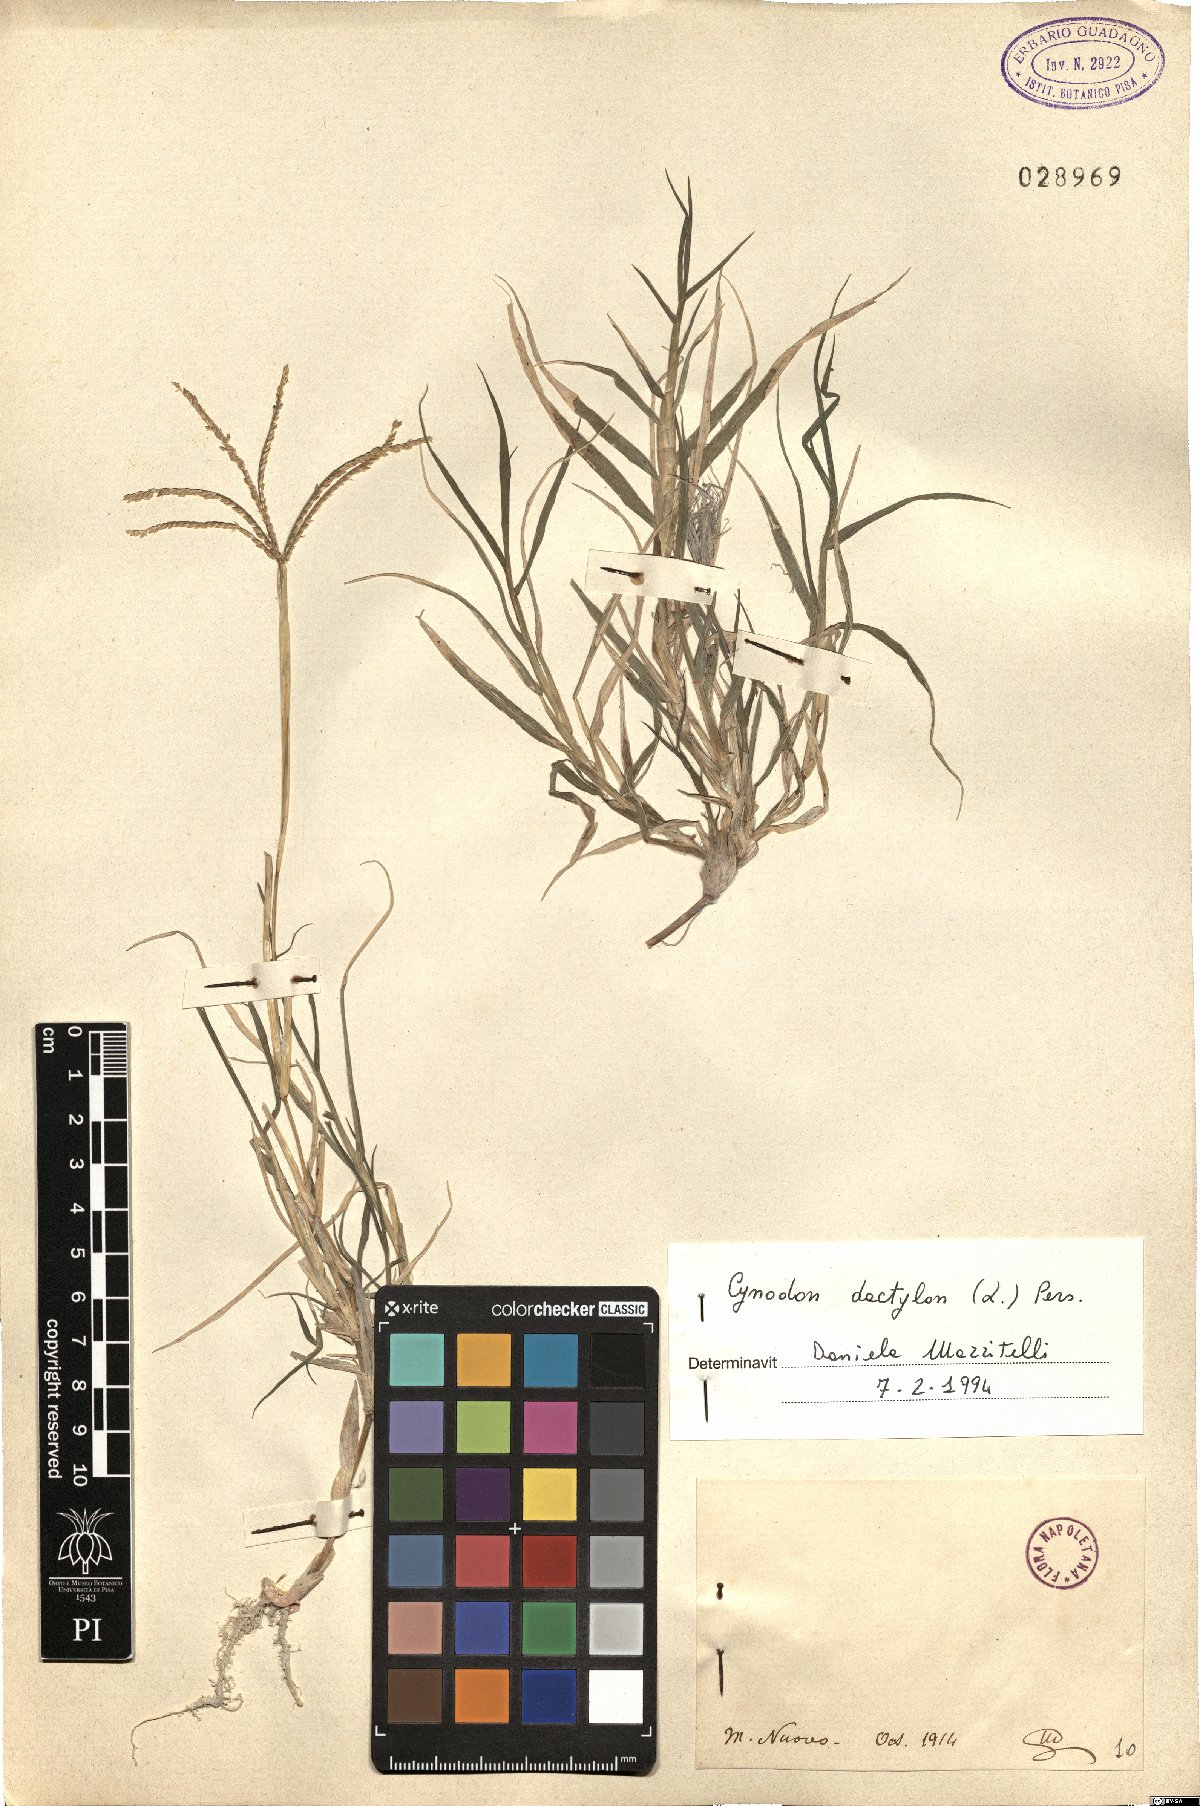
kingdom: Plantae
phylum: Tracheophyta
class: Liliopsida
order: Poales
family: Poaceae
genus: Cynodon
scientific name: Cynodon dactylon
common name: Bermuda grass
